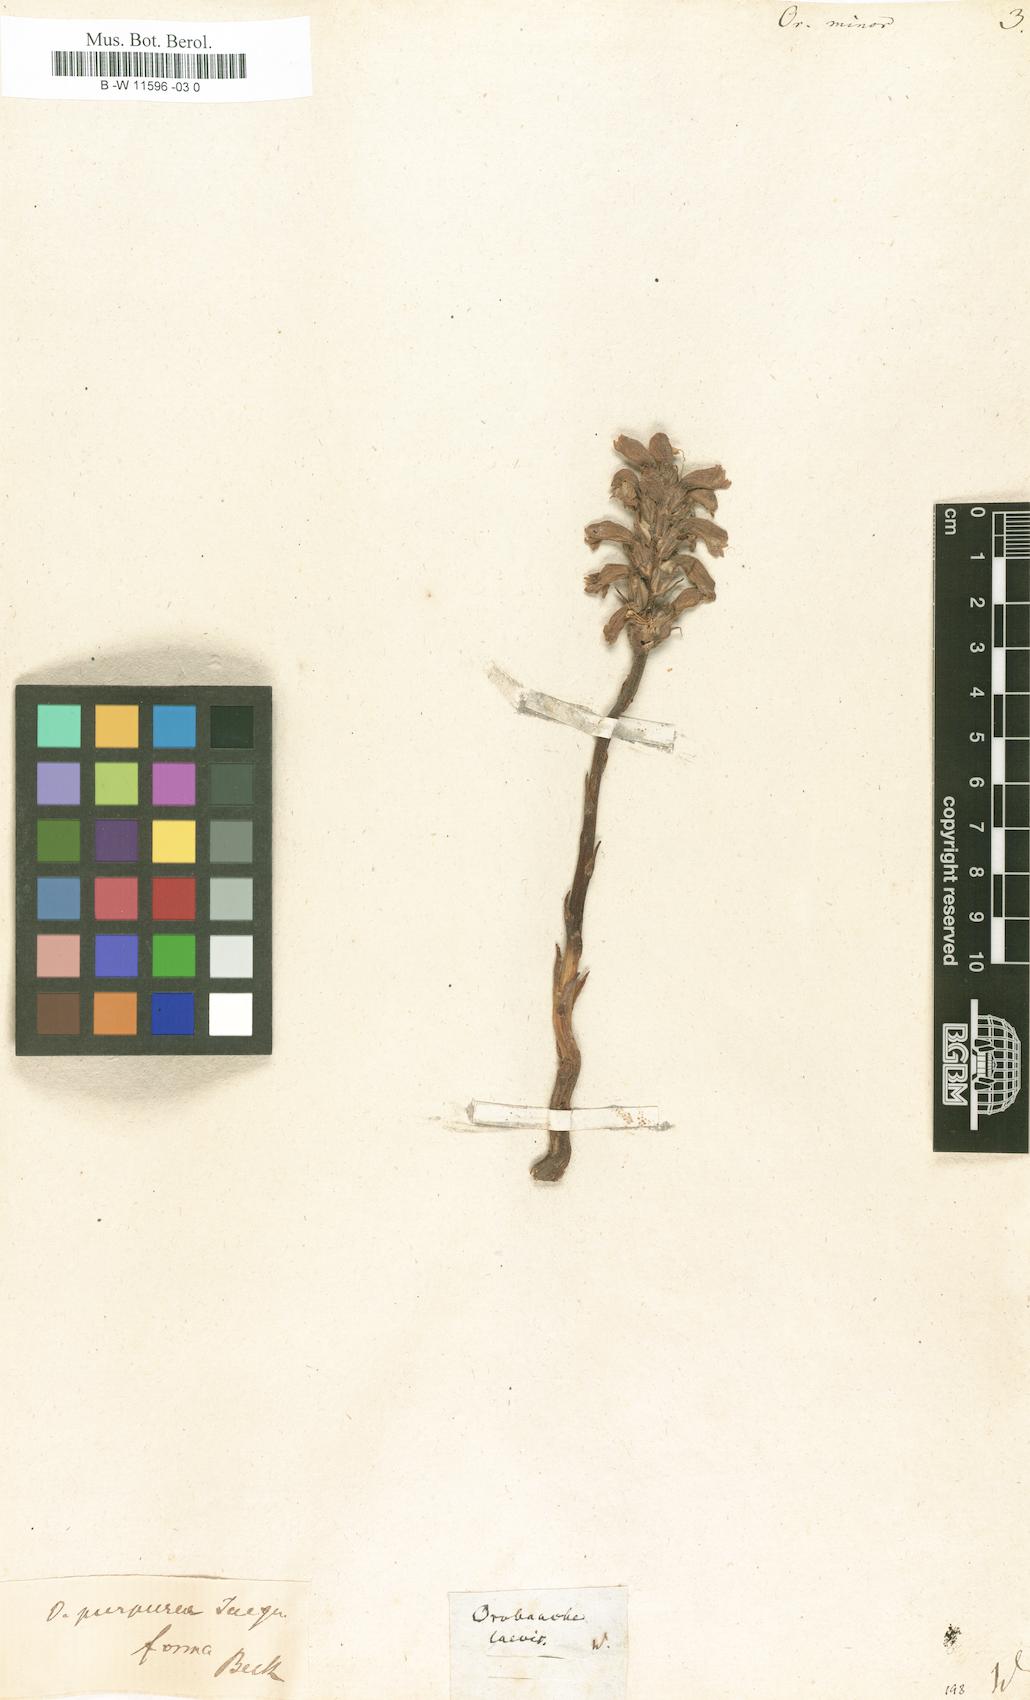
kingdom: Plantae
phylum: Tracheophyta
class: Magnoliopsida
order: Lamiales
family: Orobanchaceae
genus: Orobanche
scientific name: Orobanche minor
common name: Common broomrape
